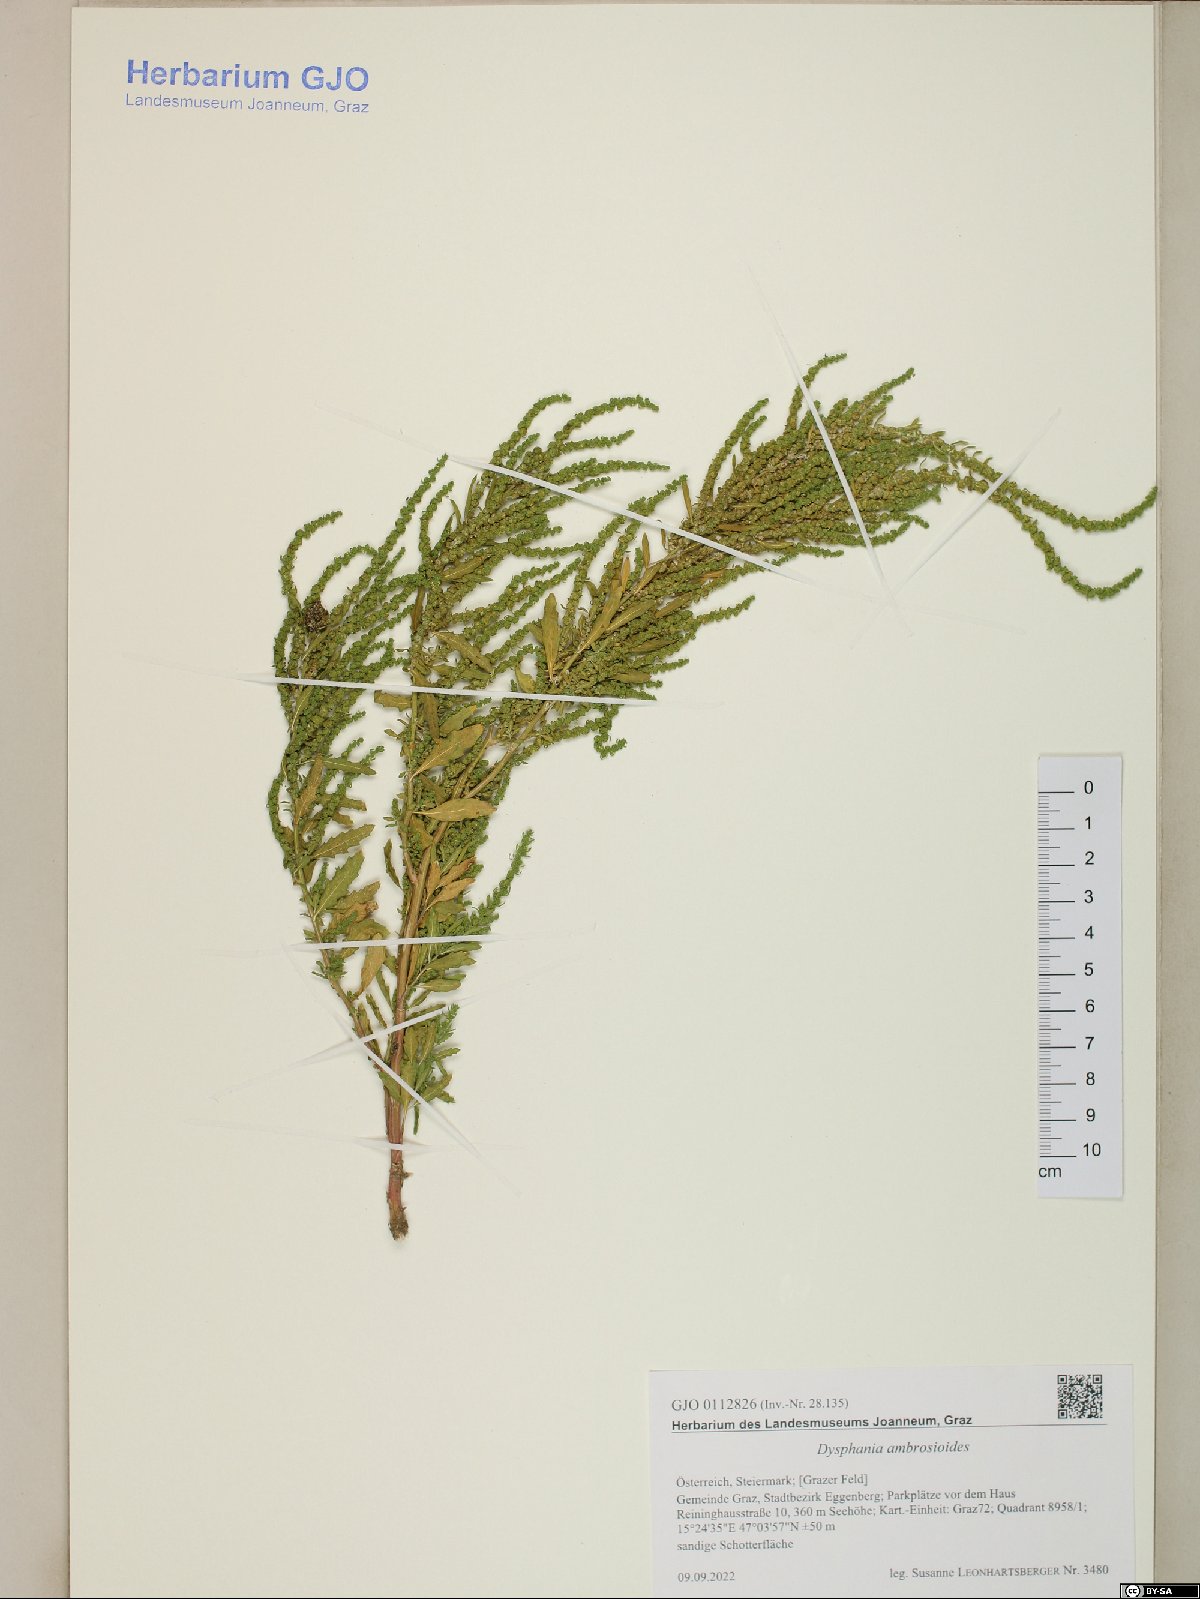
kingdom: Plantae
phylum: Tracheophyta
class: Magnoliopsida
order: Caryophyllales
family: Amaranthaceae
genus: Dysphania
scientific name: Dysphania ambrosioides
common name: Wormseed
